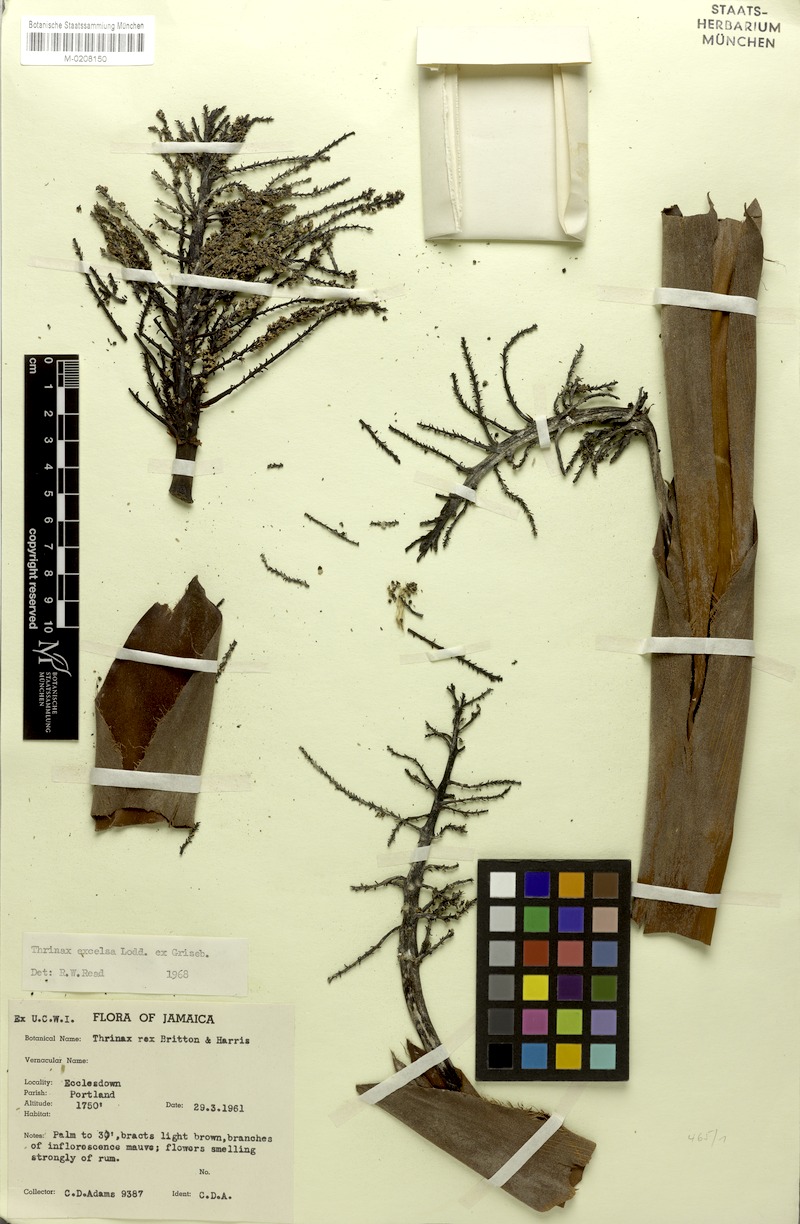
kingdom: Plantae
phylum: Tracheophyta
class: Liliopsida
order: Arecales
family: Arecaceae
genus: Thrinax
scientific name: Thrinax excelsa
